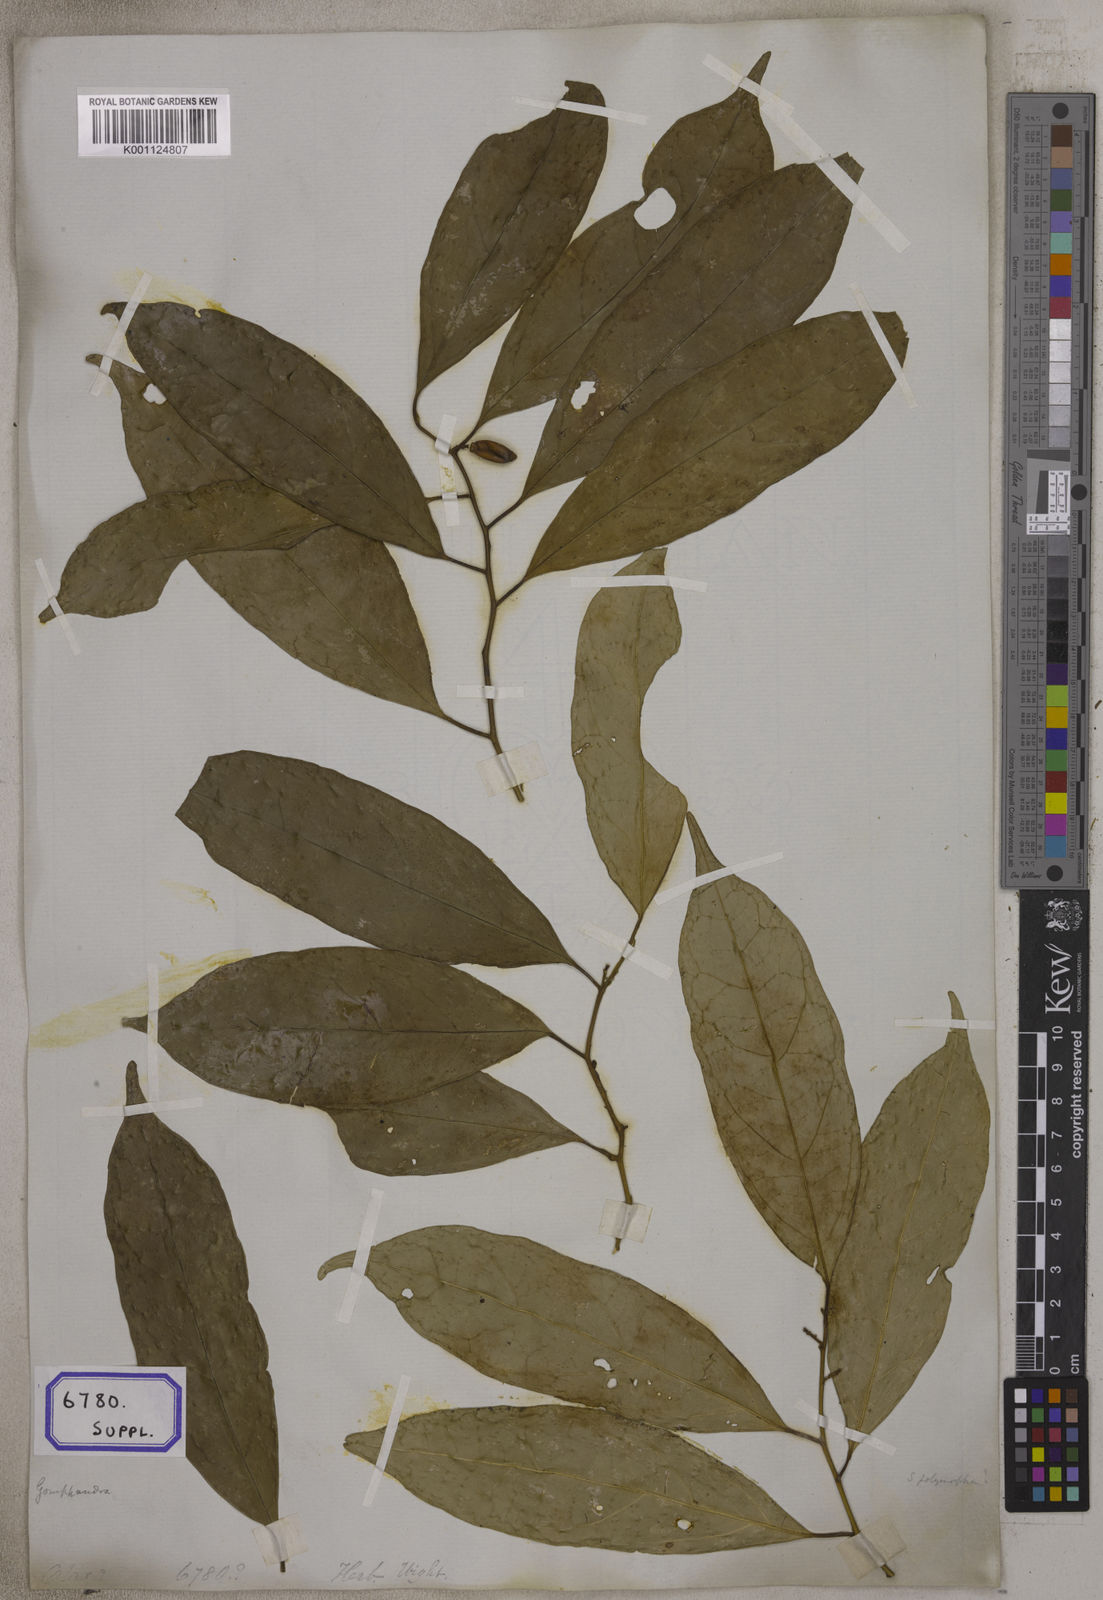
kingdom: Plantae
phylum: Tracheophyta
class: Magnoliopsida
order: Santalales
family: Olacaceae
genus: Olax
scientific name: Olax acuminata
